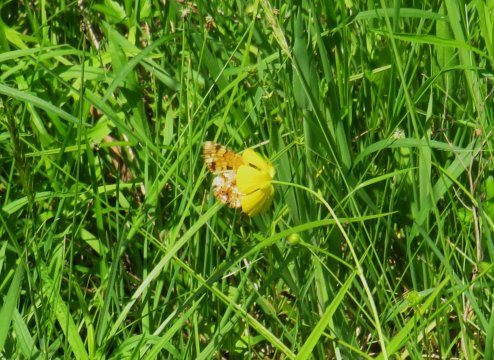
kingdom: Animalia
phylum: Arthropoda
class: Insecta
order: Lepidoptera
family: Nymphalidae
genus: Phyciodes
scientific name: Phyciodes tharos
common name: Pearl Crescent
